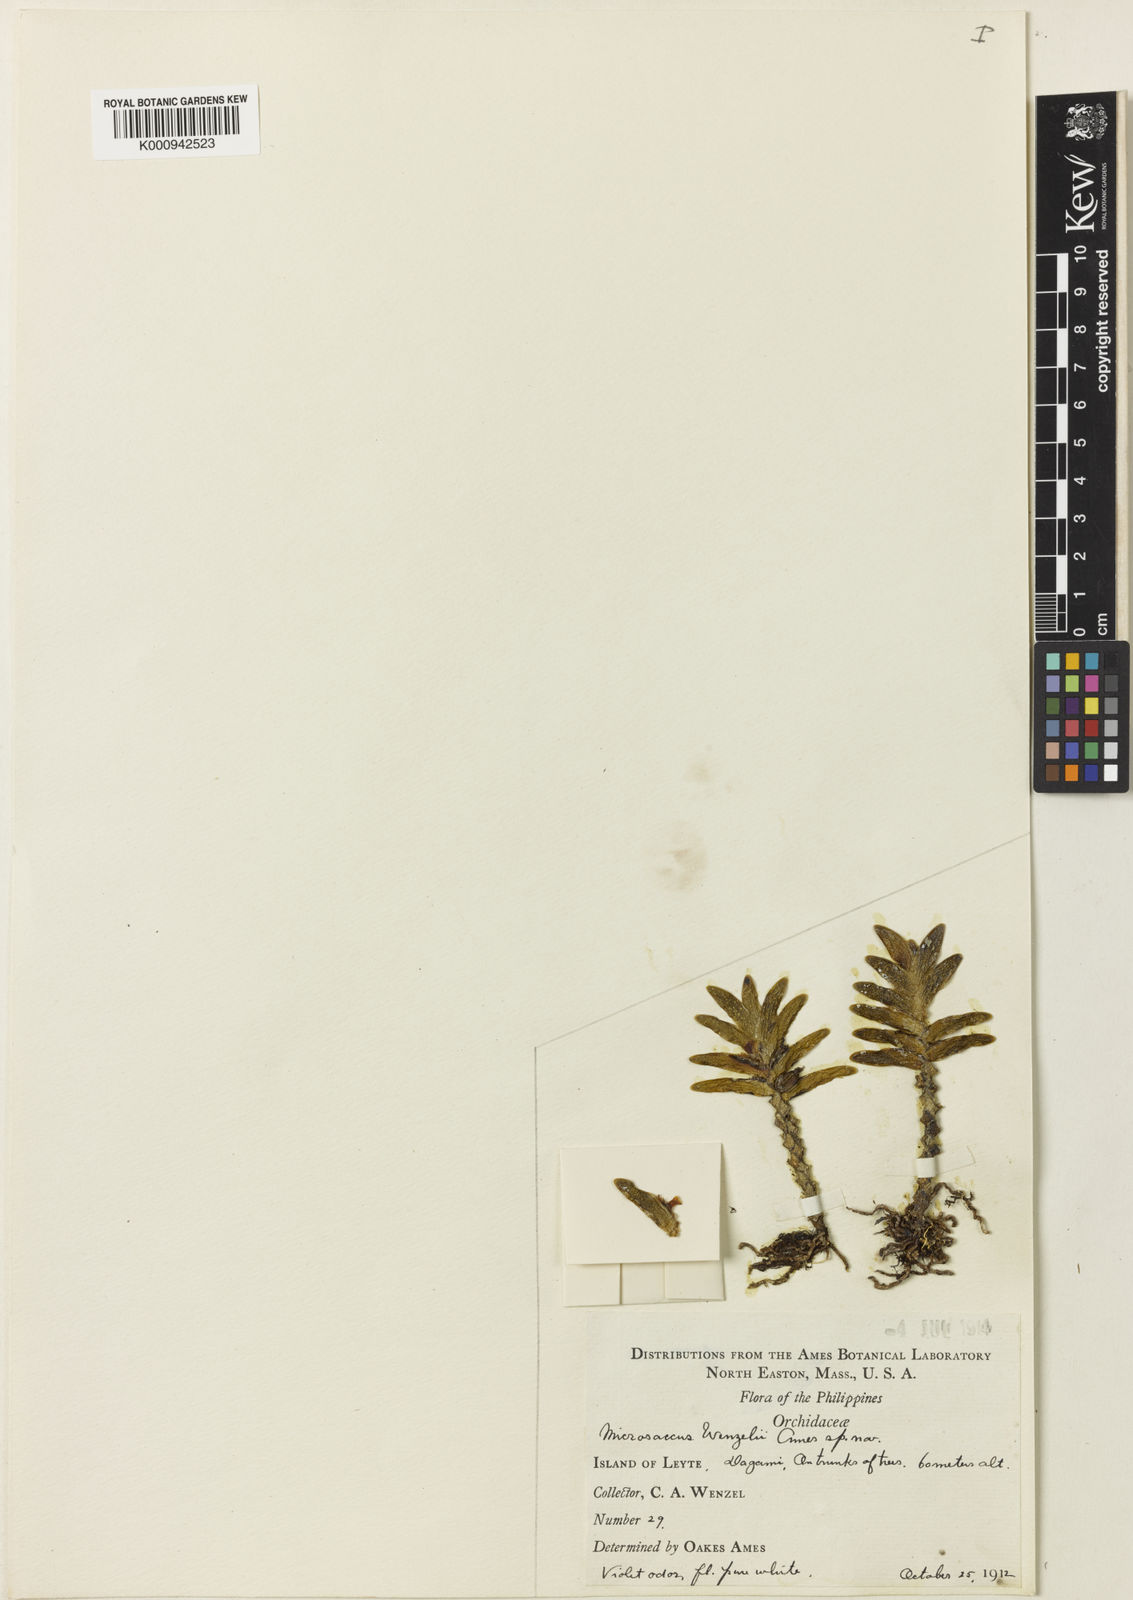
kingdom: Plantae
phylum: Tracheophyta
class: Liliopsida
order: Asparagales
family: Orchidaceae
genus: Microsaccus
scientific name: Microsaccus wenzelii
